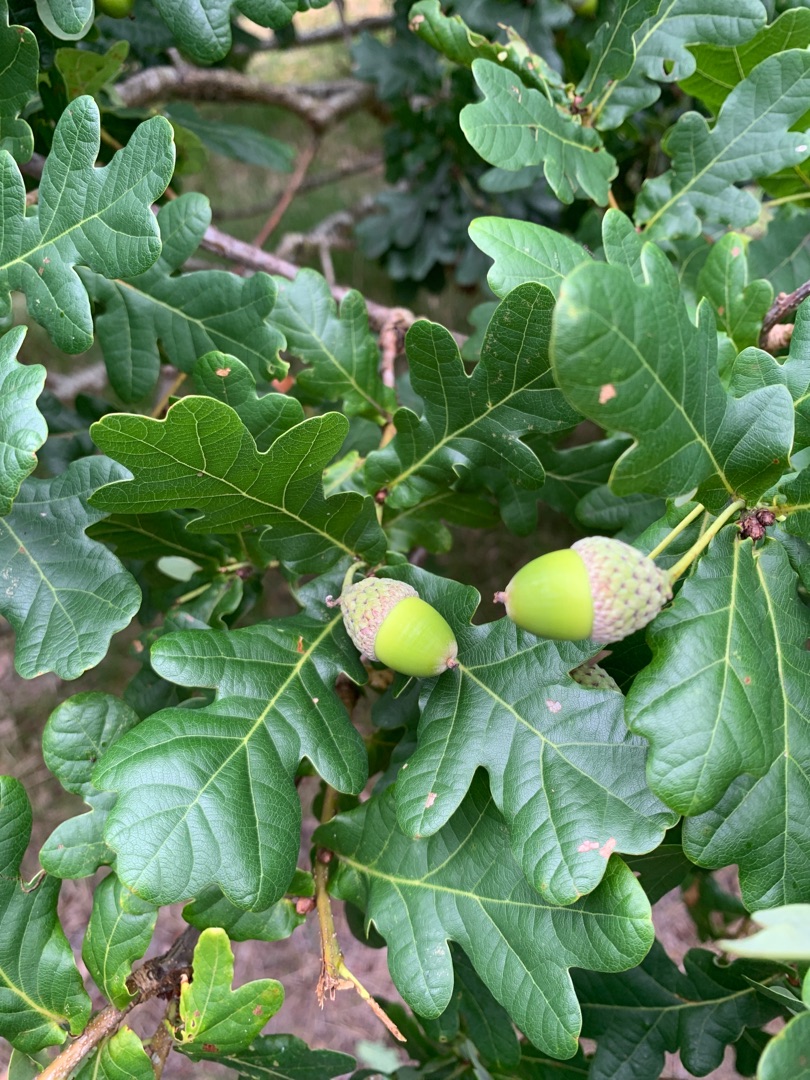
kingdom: Plantae
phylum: Tracheophyta
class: Magnoliopsida
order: Fagales
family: Fagaceae
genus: Quercus
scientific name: Quercus robur
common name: Stilk-eg/almindelig eg
